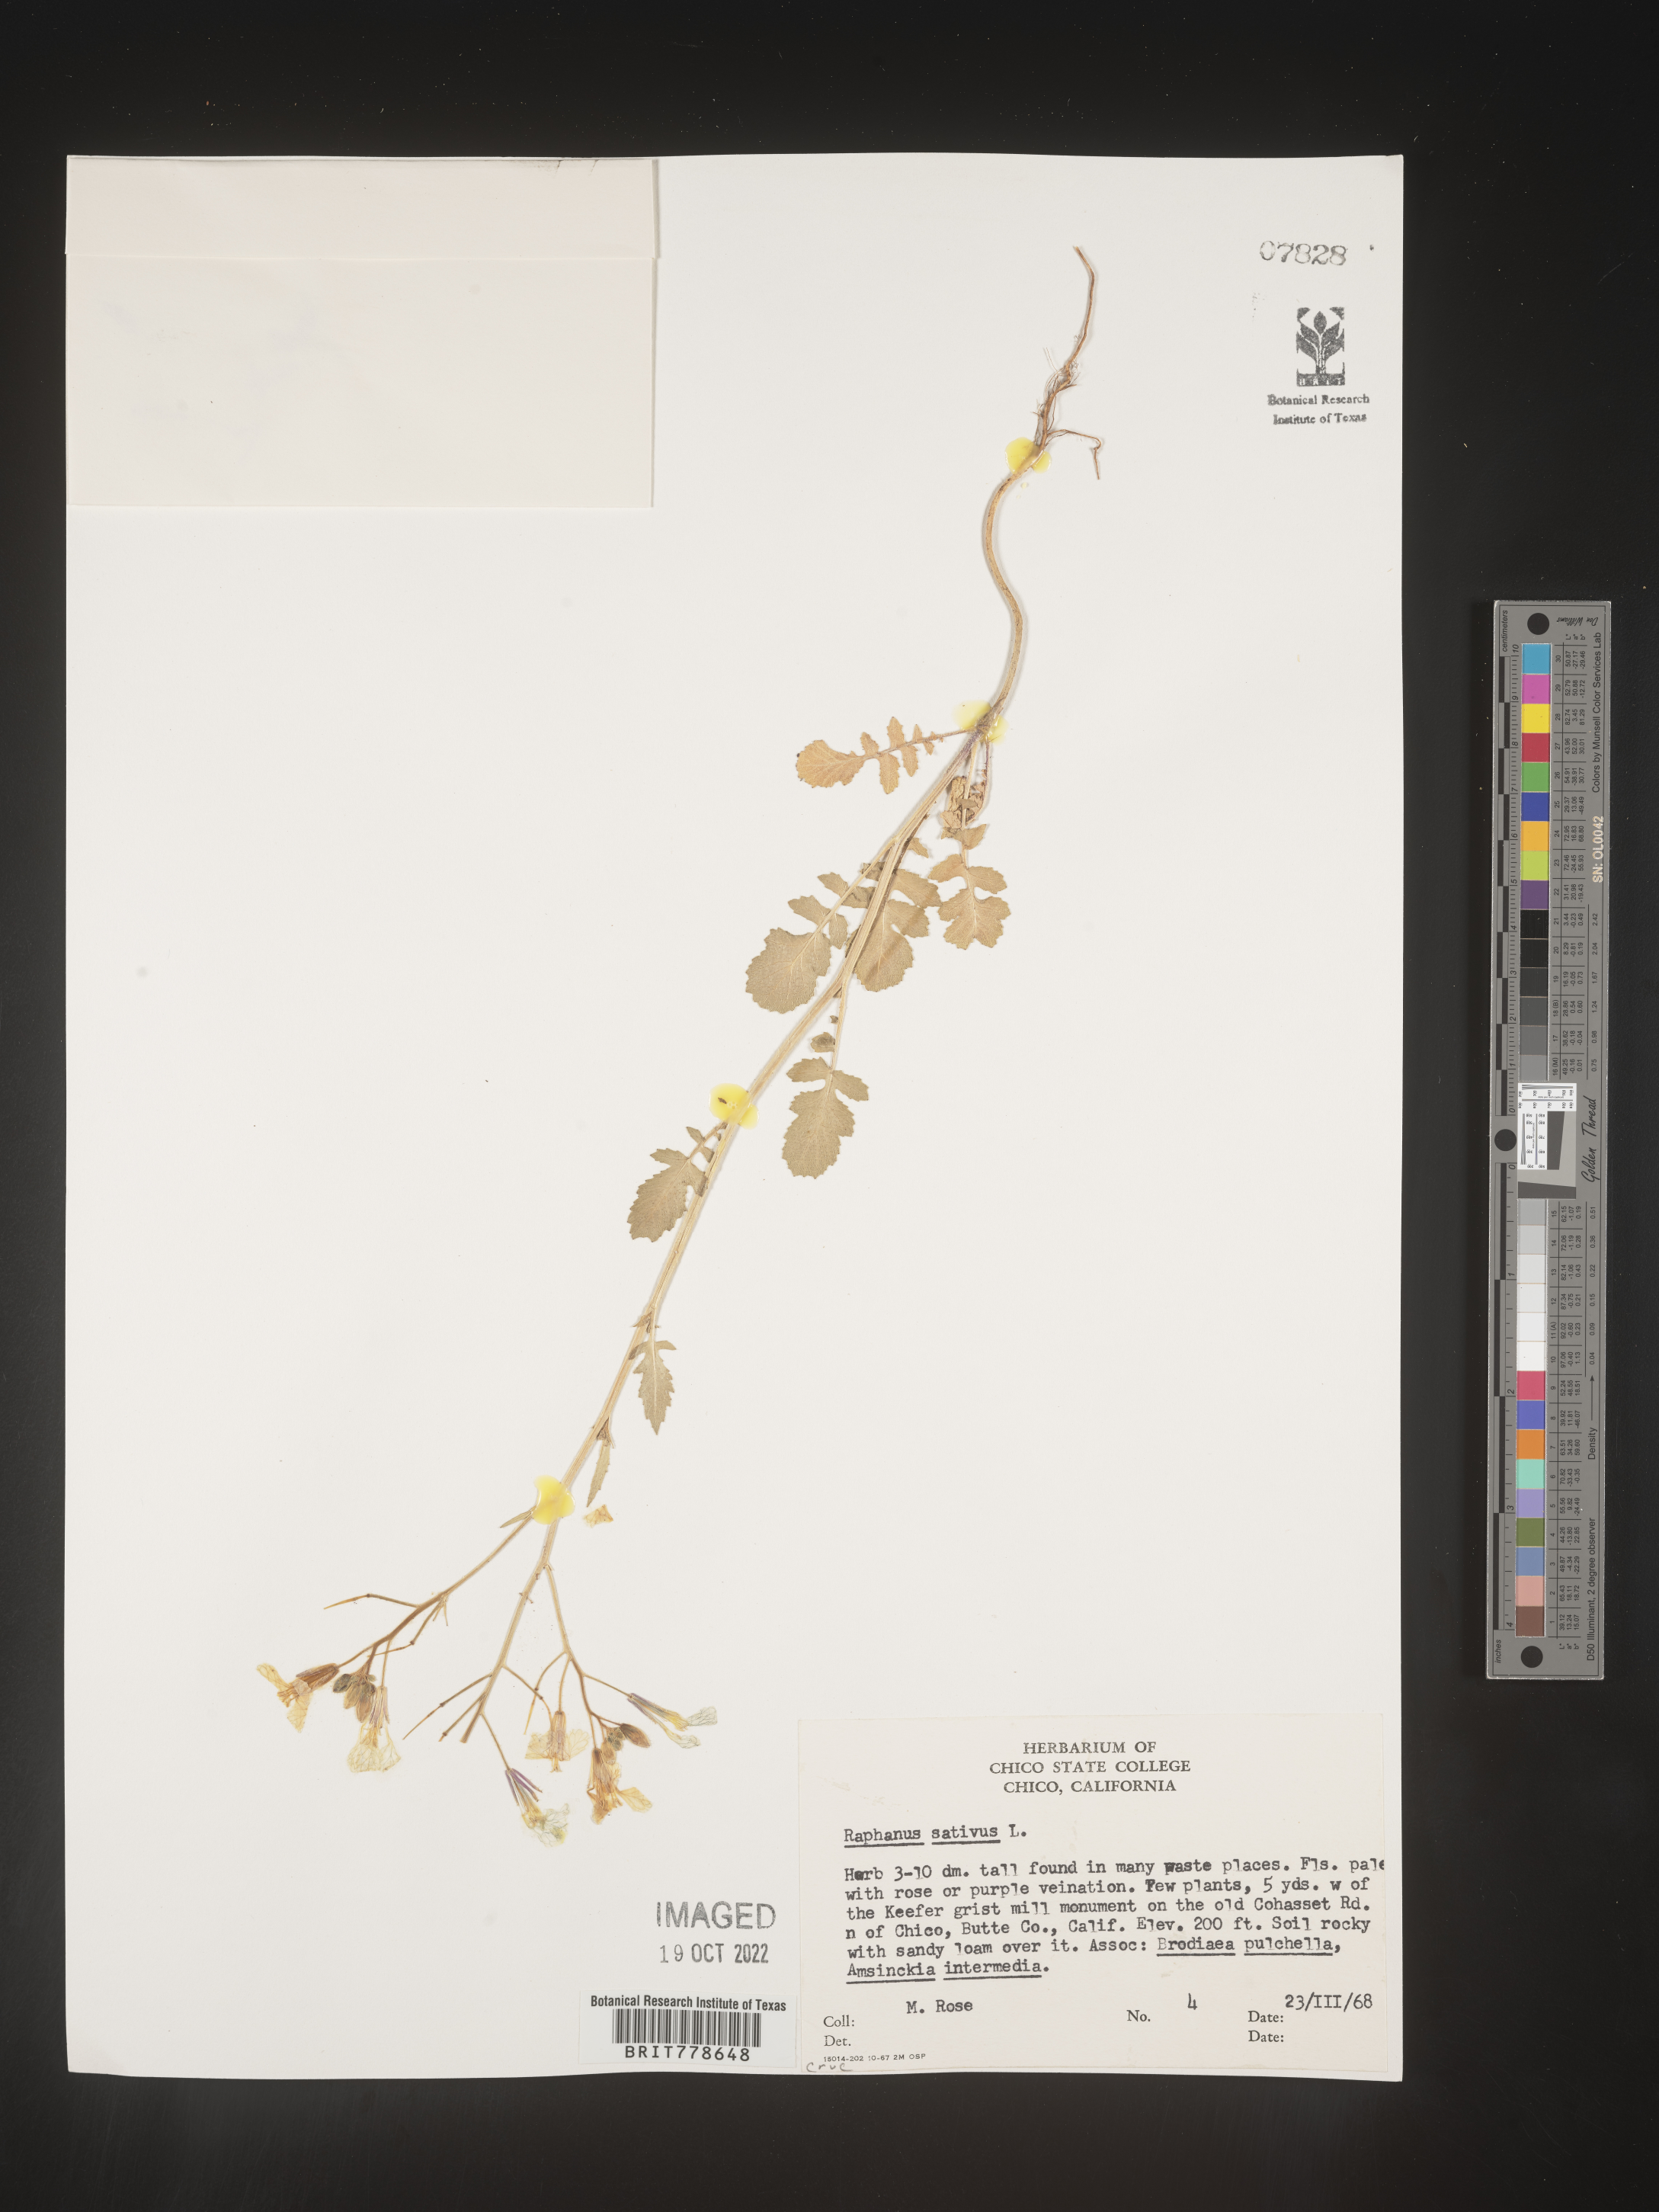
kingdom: Plantae
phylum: Tracheophyta
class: Magnoliopsida
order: Brassicales
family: Brassicaceae
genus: Raphanus
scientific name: Raphanus sativus
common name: Cultivated radish
